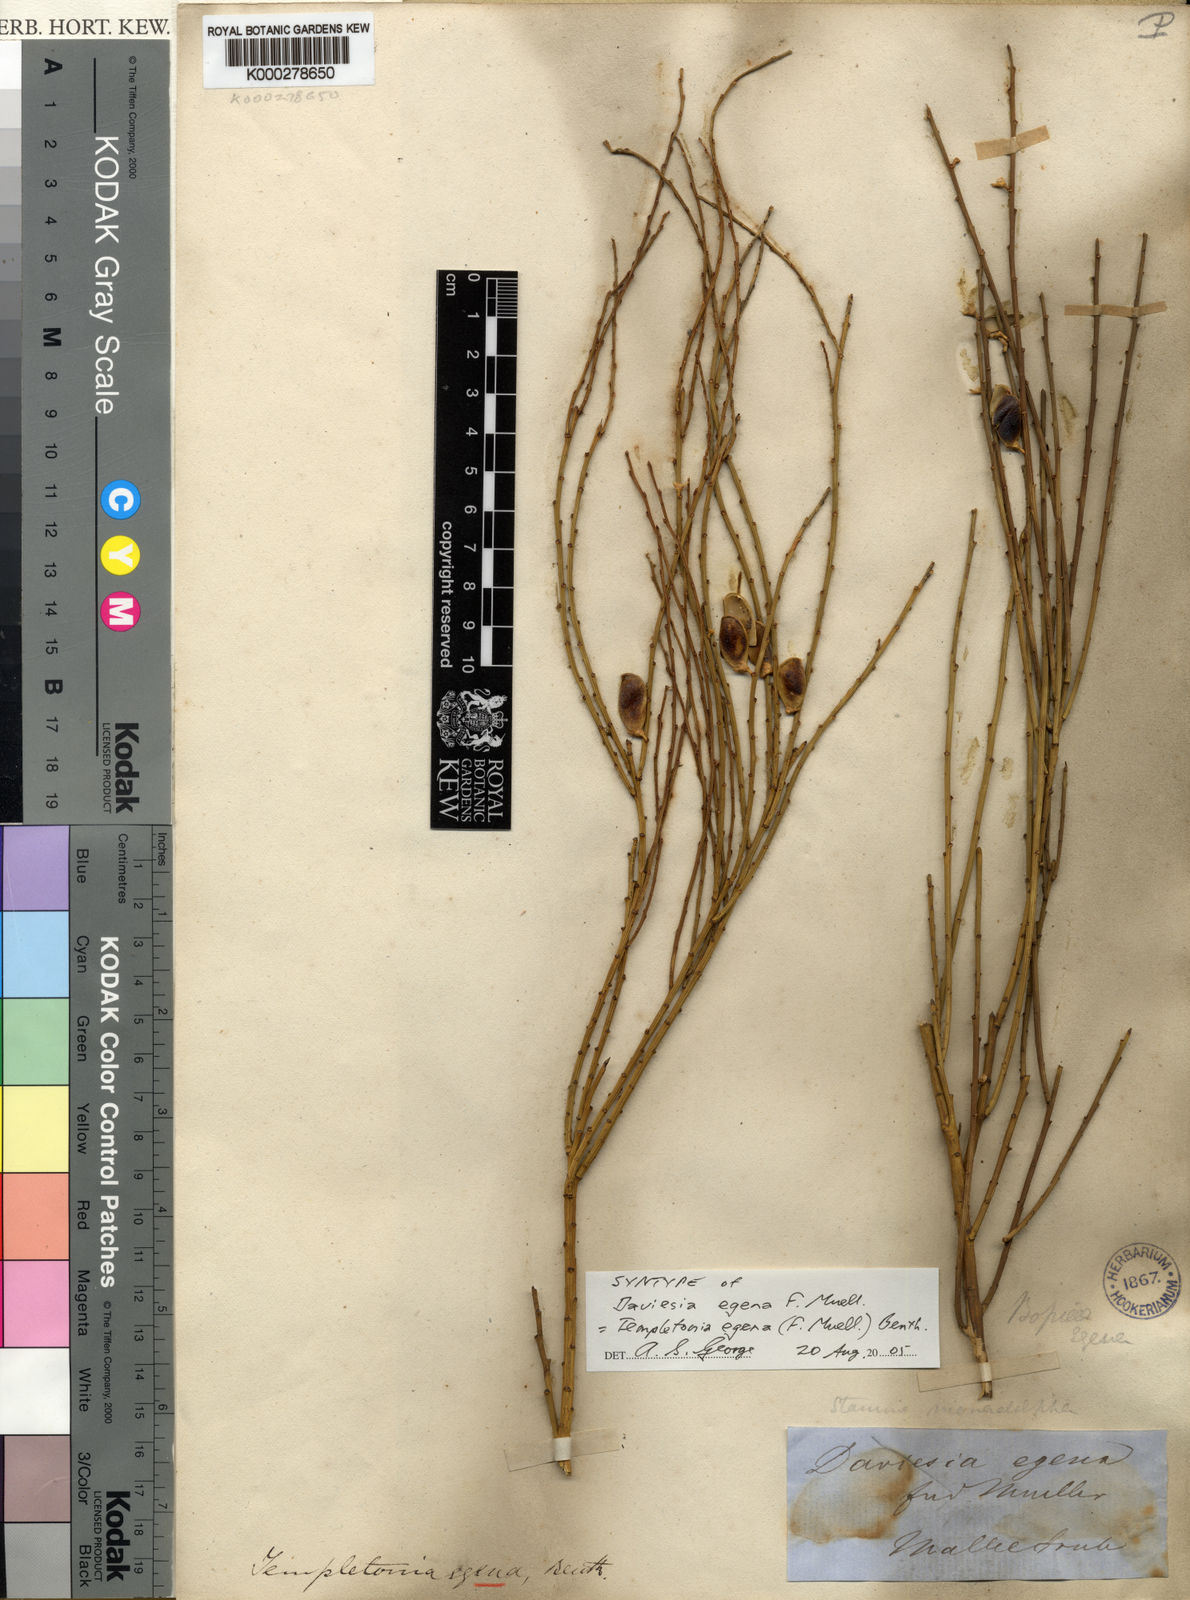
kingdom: Plantae
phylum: Tracheophyta
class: Magnoliopsida
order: Fabales
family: Fabaceae
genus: Templetonia
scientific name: Templetonia egena
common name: Desert broombush
